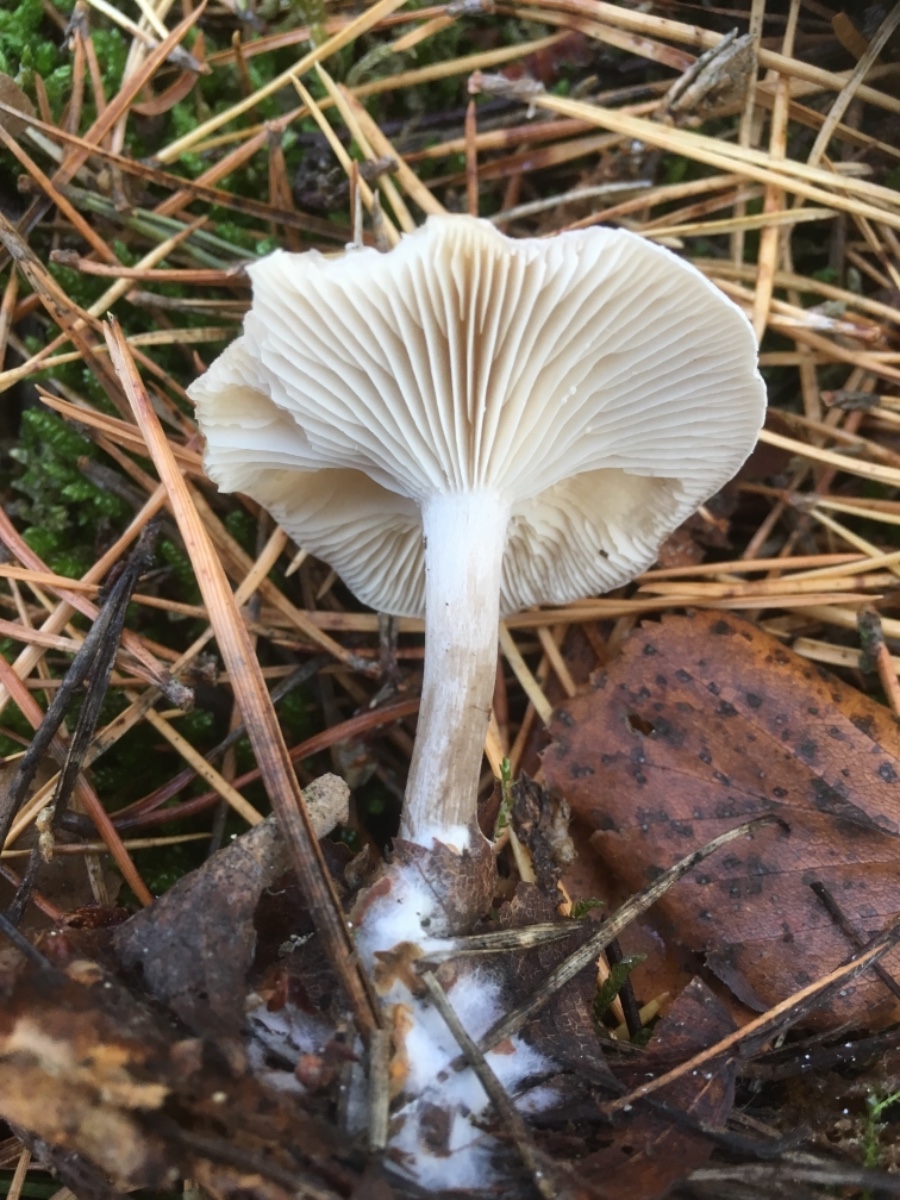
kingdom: Fungi
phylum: Basidiomycota
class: Agaricomycetes
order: Agaricales
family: Tricholomataceae
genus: Clitocybe
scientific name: Clitocybe
